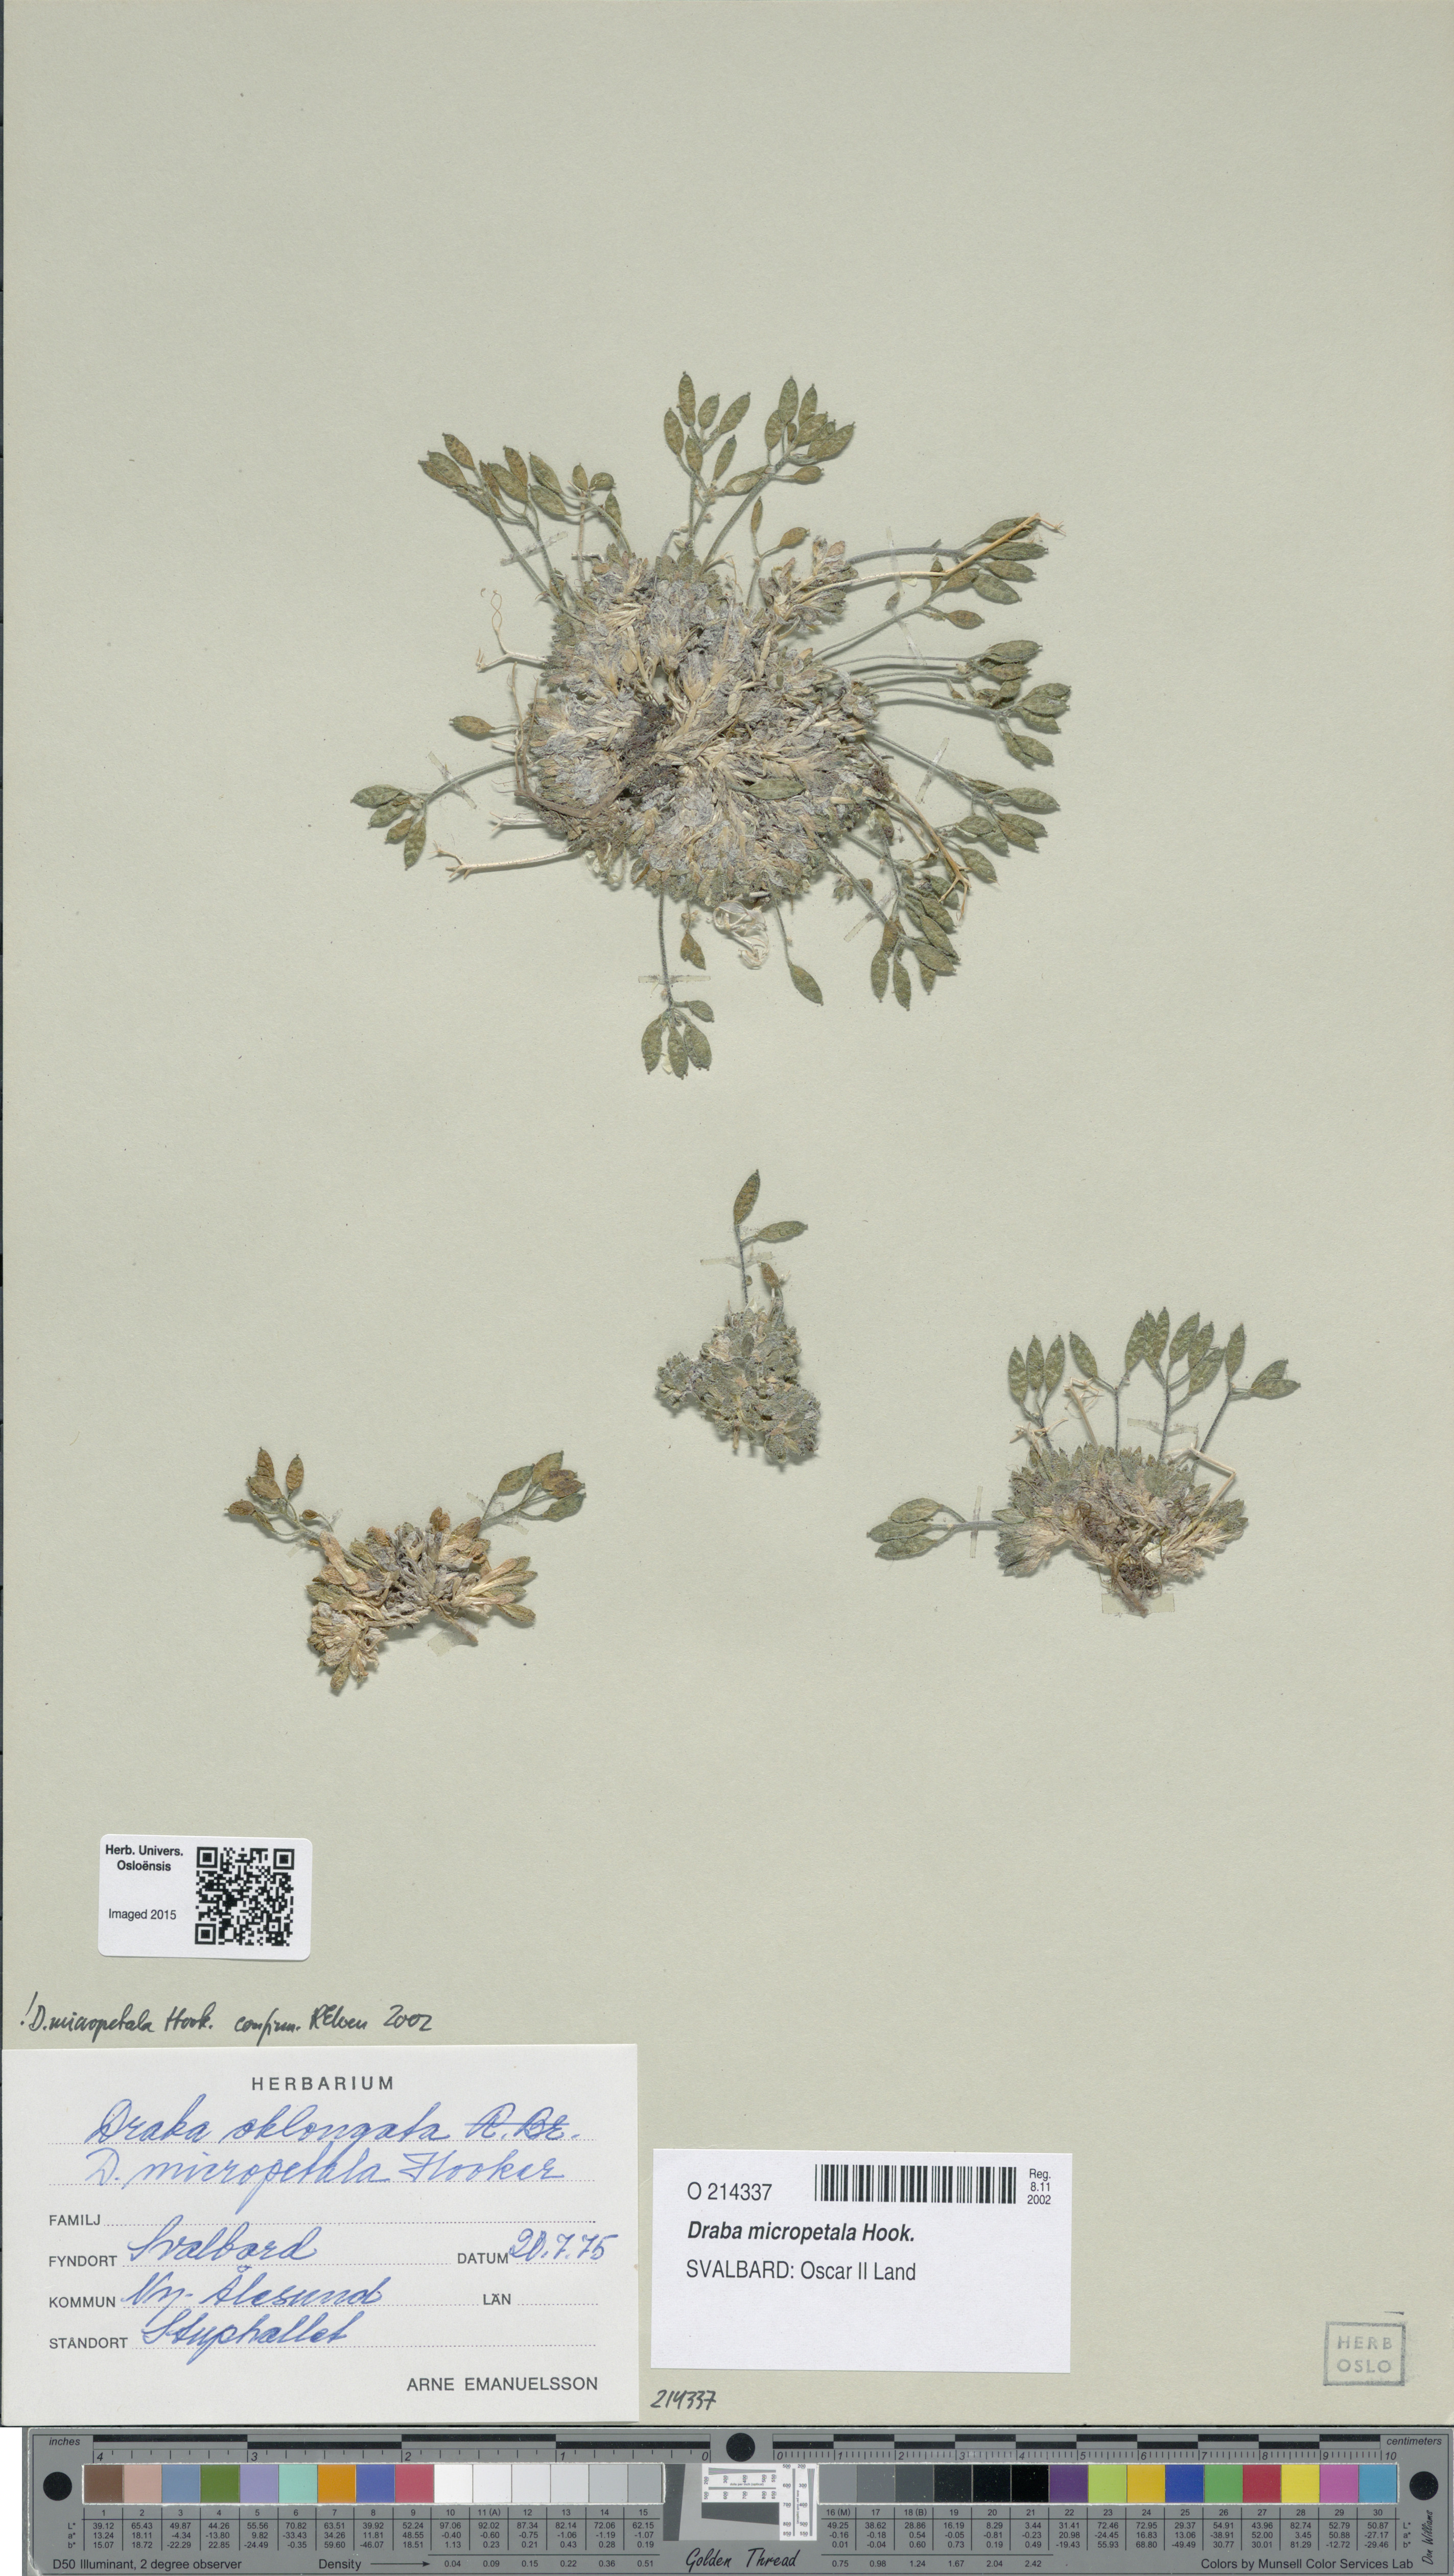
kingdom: Plantae
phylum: Tracheophyta
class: Magnoliopsida
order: Brassicales
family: Brassicaceae
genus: Draba
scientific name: Draba micropetala
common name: Small-flowered draba
